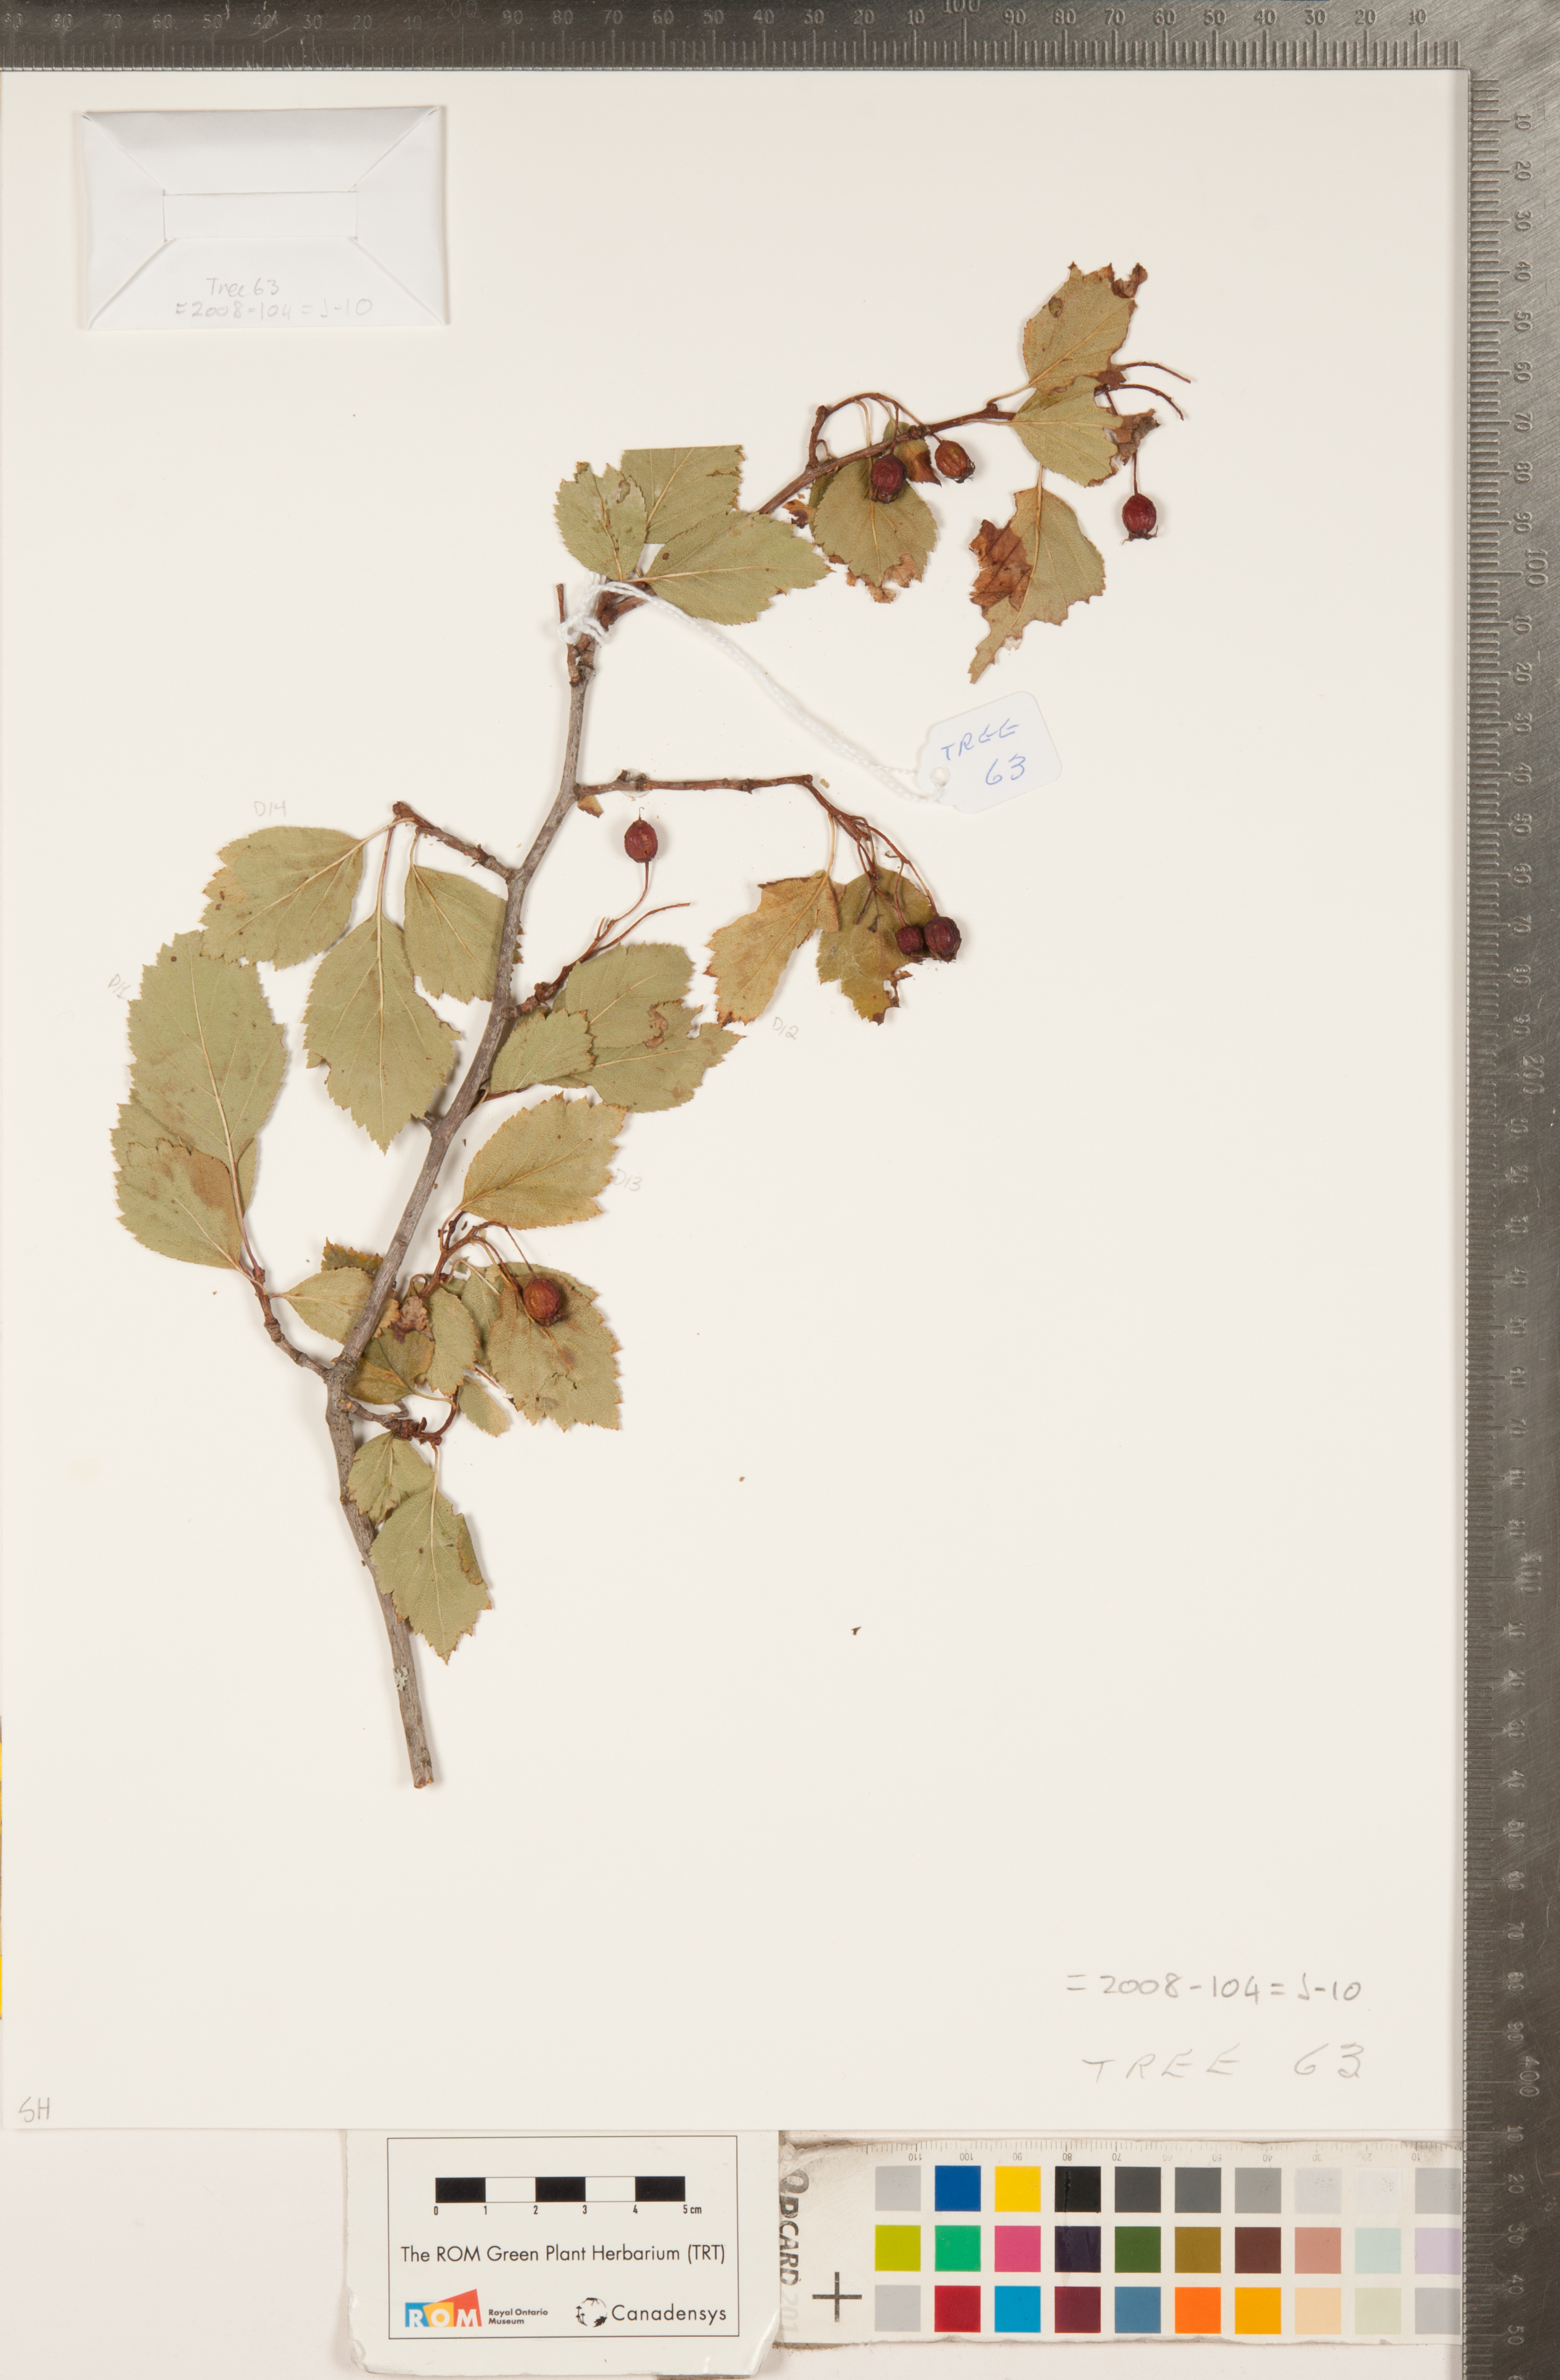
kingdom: Plantae
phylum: Tracheophyta
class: Magnoliopsida
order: Rosales
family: Rosaceae
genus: Crataegus
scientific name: Crataegus douglasii
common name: Black hawthorn
